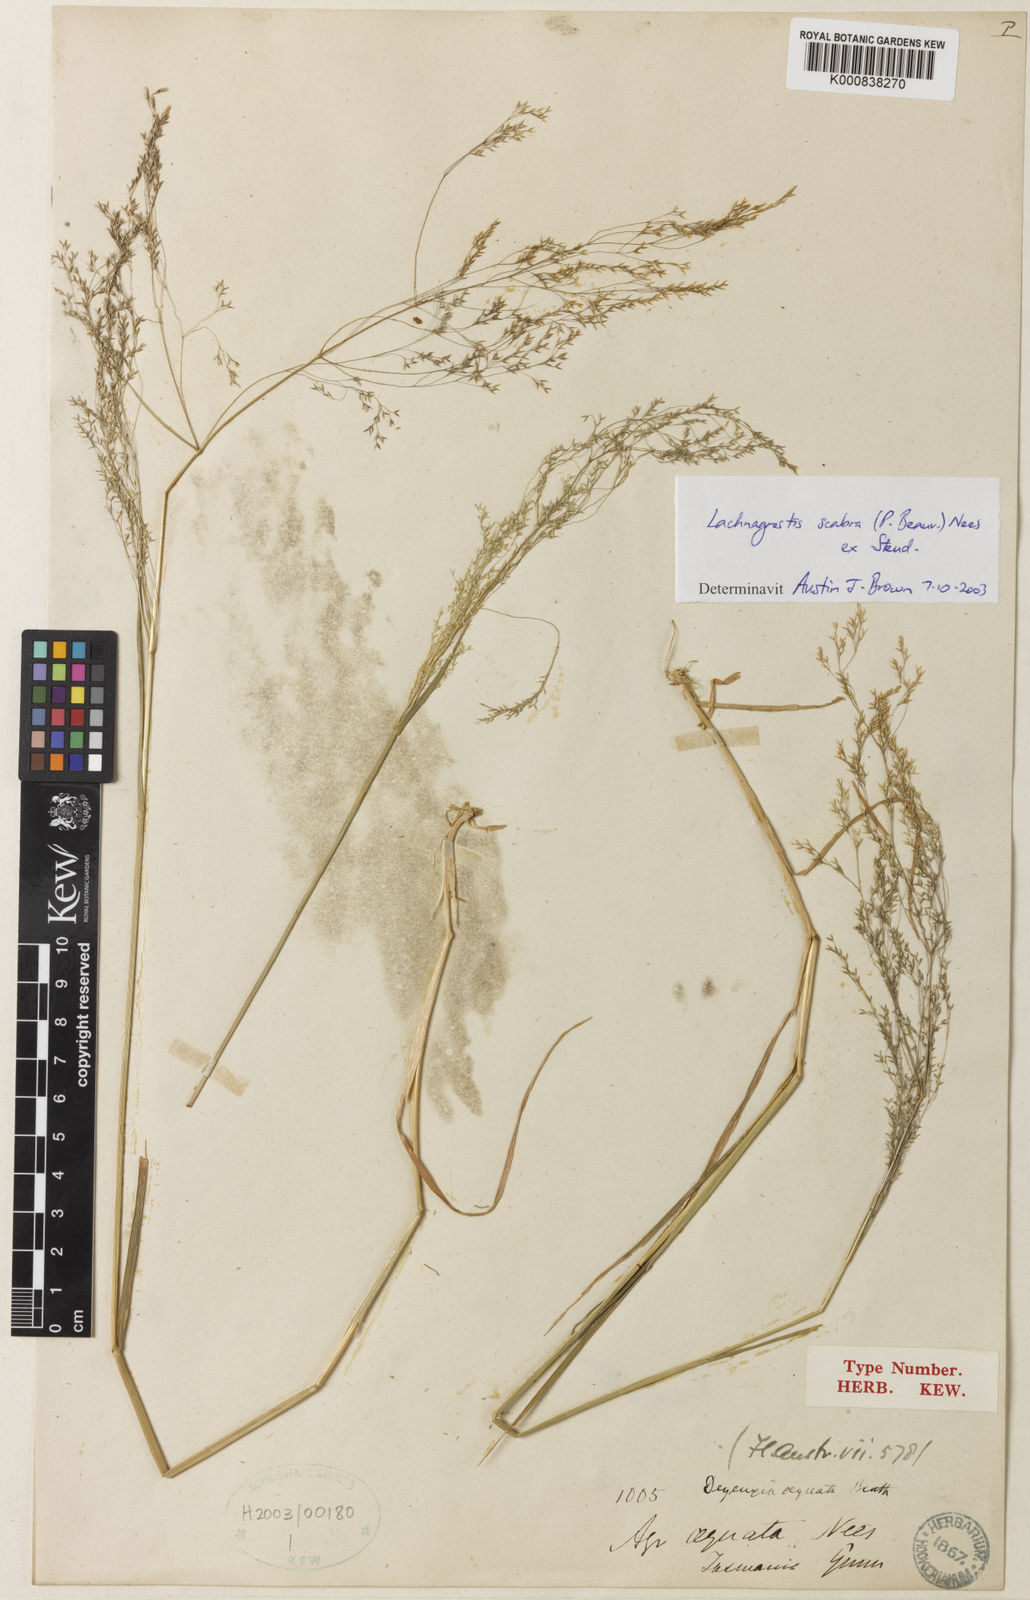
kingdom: Plantae
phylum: Tracheophyta
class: Liliopsida
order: Poales
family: Poaceae
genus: Lachnagrostis
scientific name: Lachnagrostis rudis
